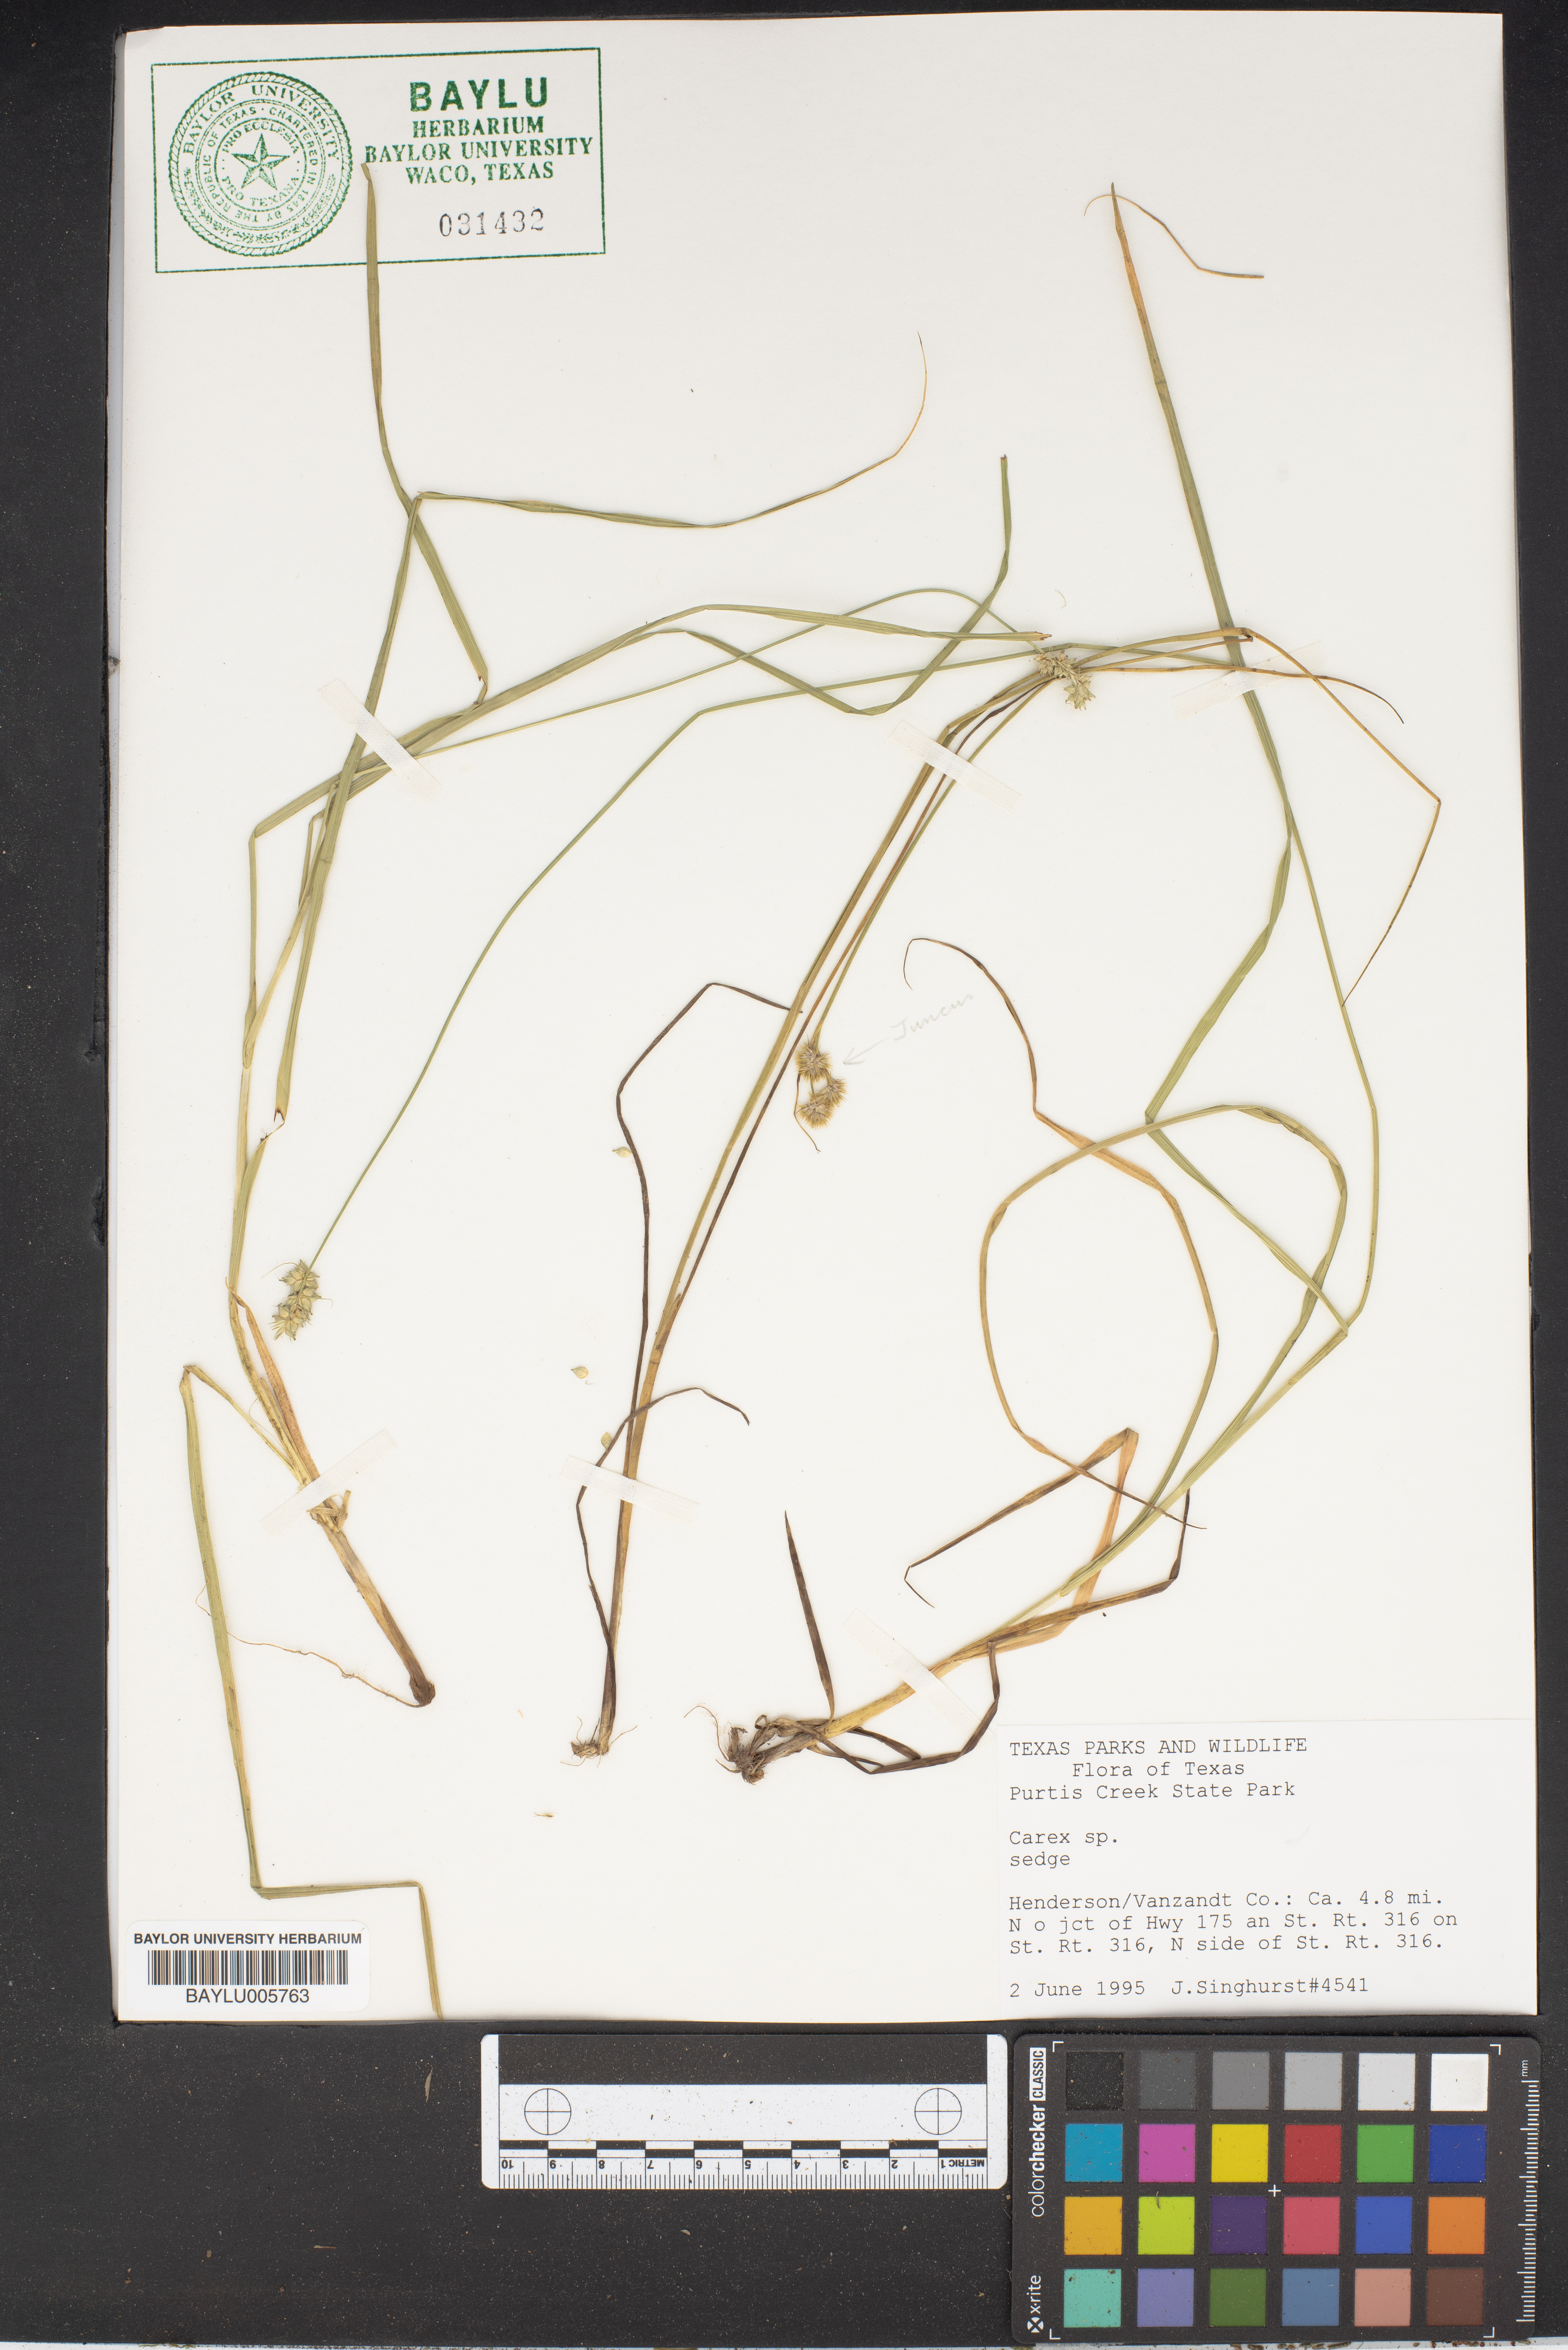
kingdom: Plantae
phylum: Tracheophyta
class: Liliopsida
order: Poales
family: Cyperaceae
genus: Carex
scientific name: Carex
